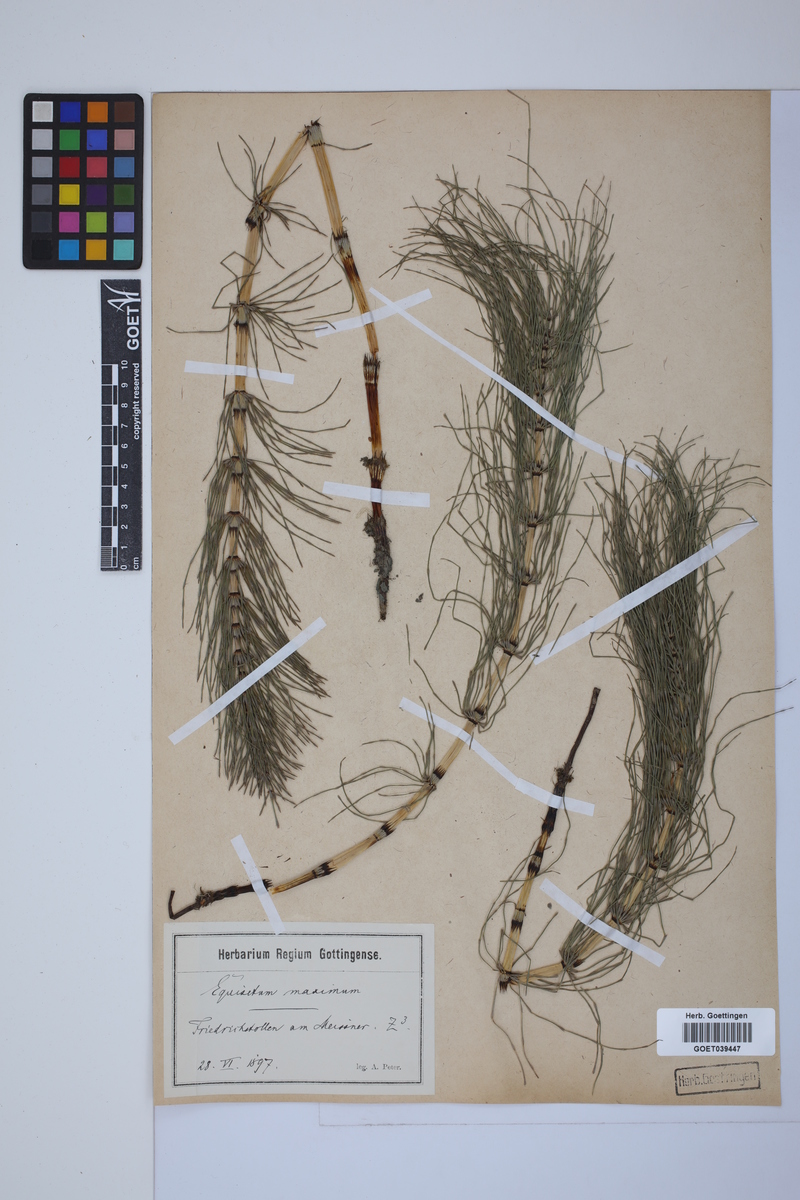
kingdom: Plantae
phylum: Tracheophyta
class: Polypodiopsida
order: Equisetales
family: Equisetaceae
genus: Equisetum
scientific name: Equisetum telmateia
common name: Great horsetail
